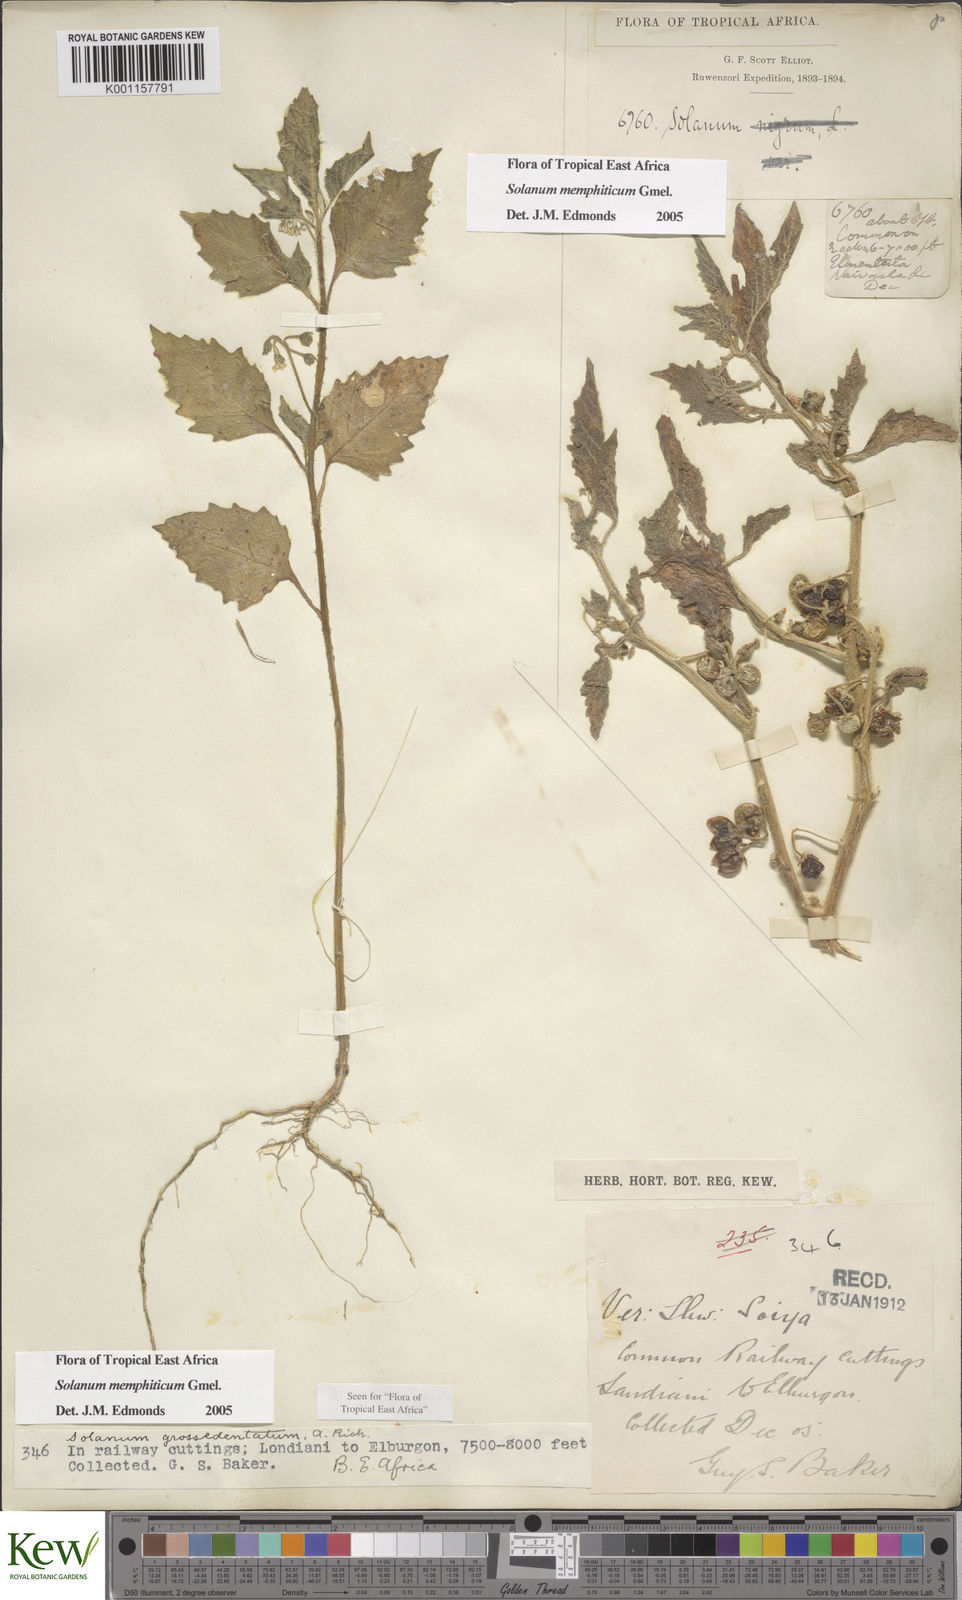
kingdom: Plantae
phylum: Tracheophyta
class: Magnoliopsida
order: Solanales
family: Solanaceae
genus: Solanum
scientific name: Solanum memphiticum
